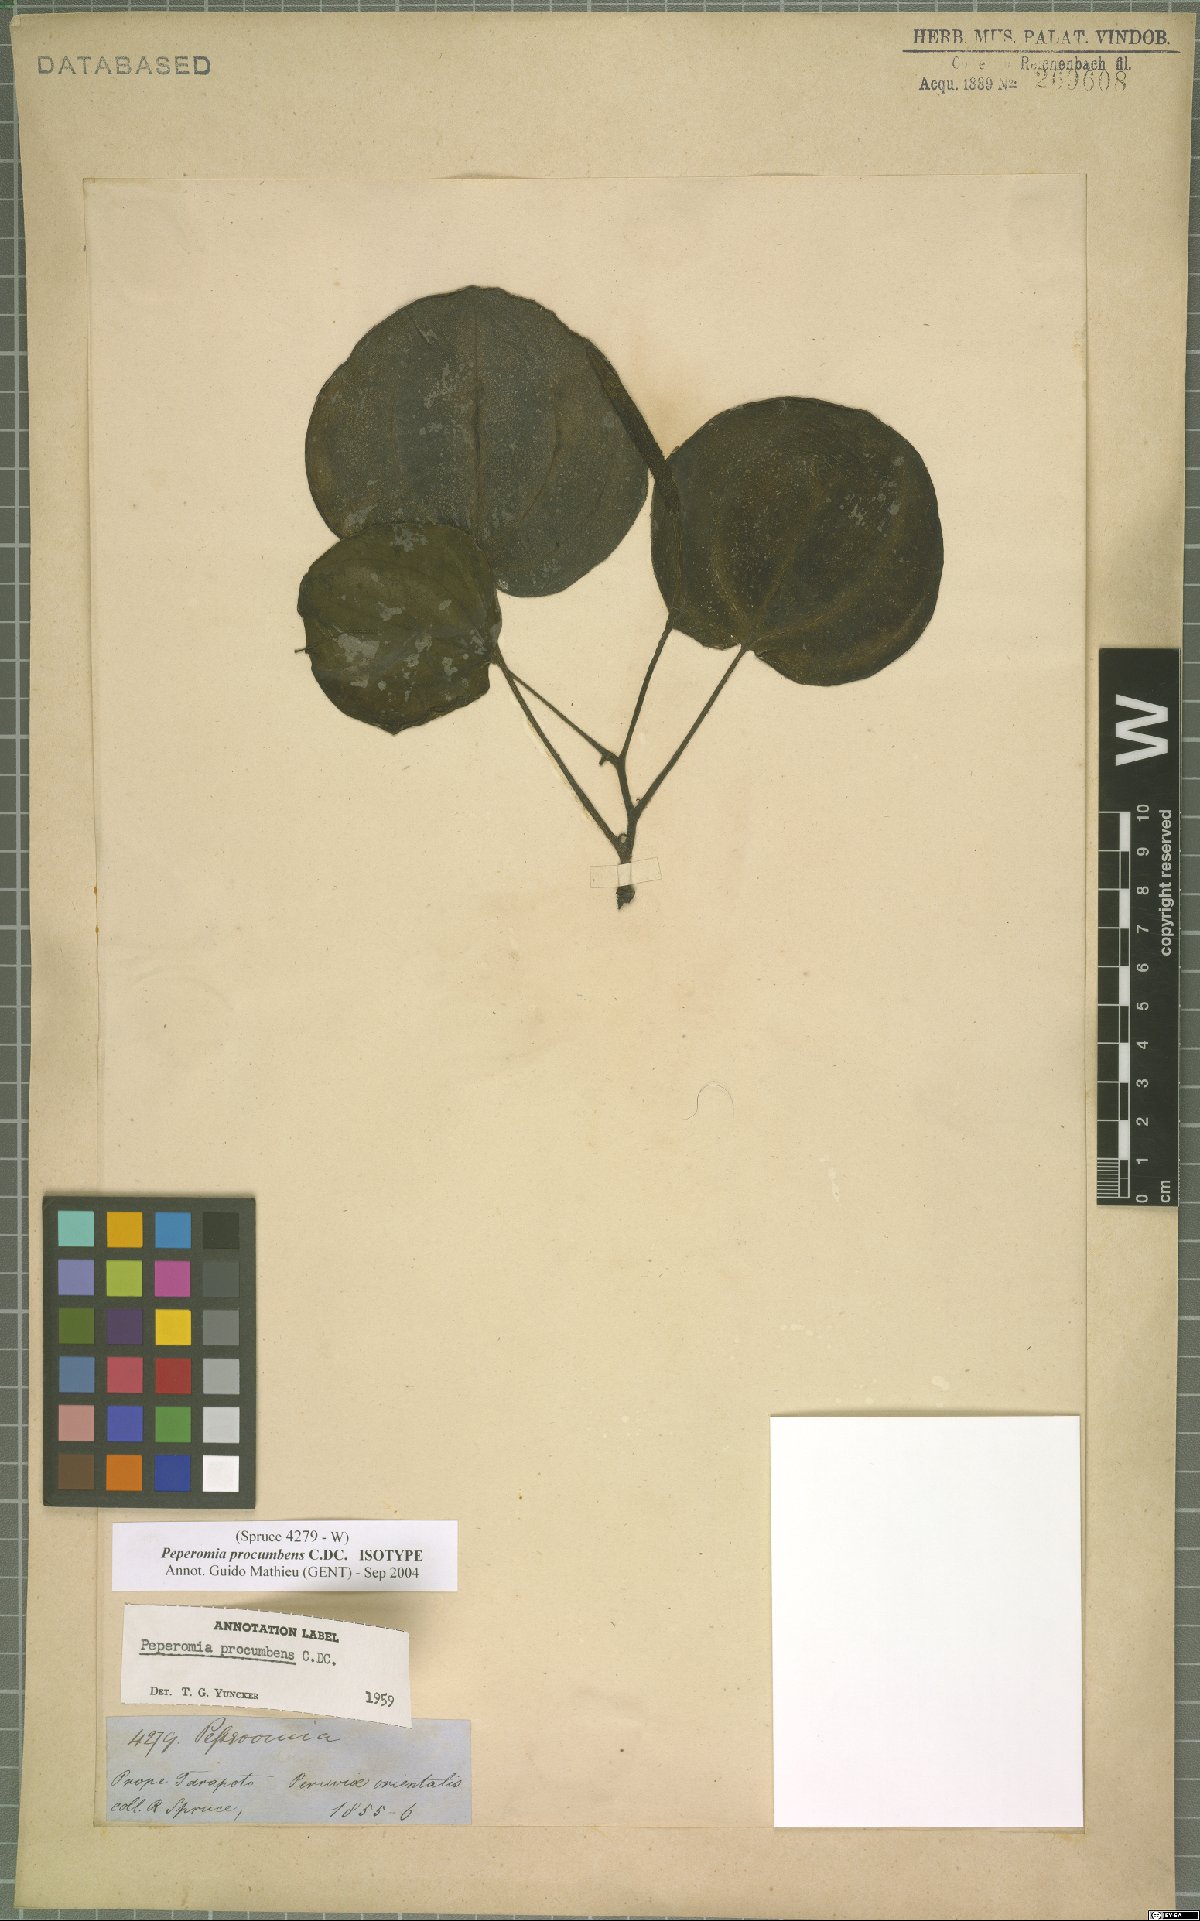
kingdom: Plantae
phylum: Tracheophyta
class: Magnoliopsida
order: Piperales
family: Piperaceae
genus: Peperomia
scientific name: Peperomia procumbens
